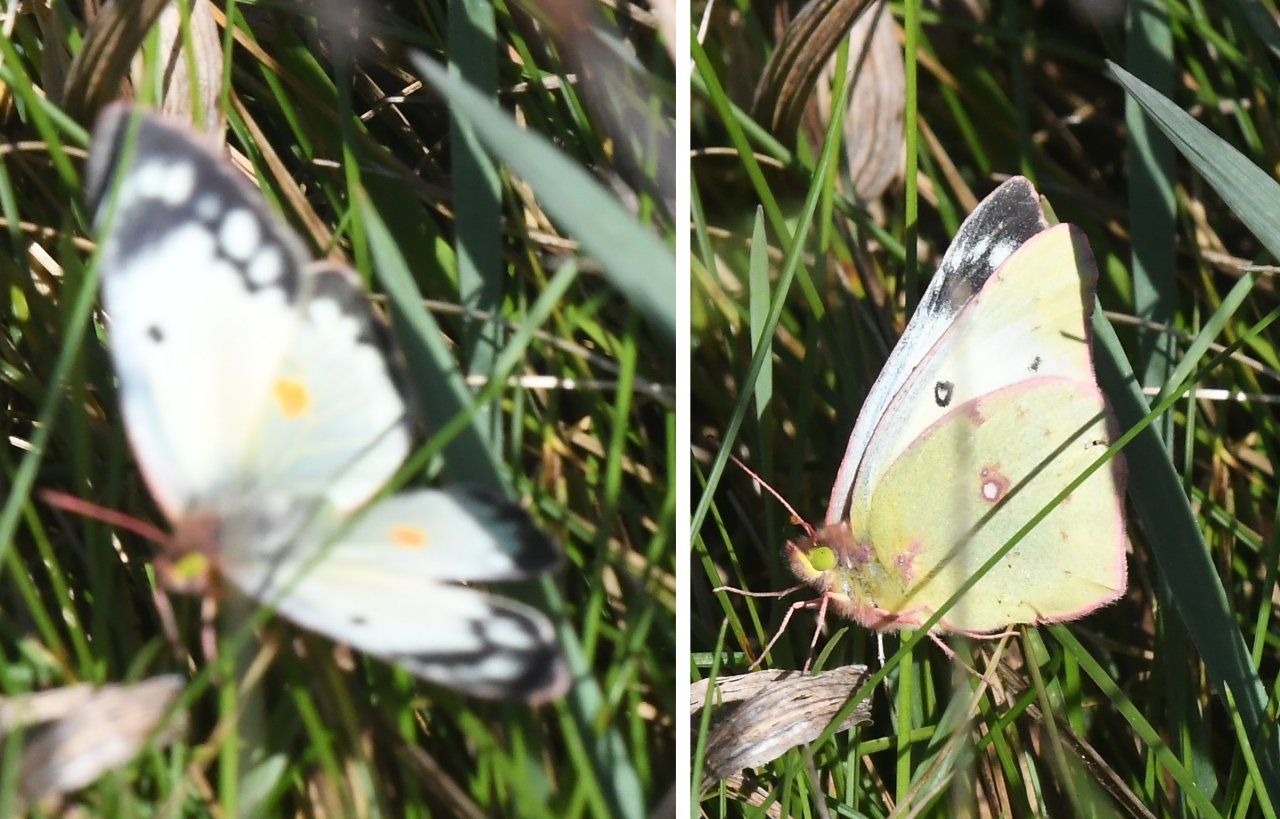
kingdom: Animalia
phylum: Arthropoda
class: Insecta
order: Lepidoptera
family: Pieridae
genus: Colias
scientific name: Colias
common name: Clouded Yellows
